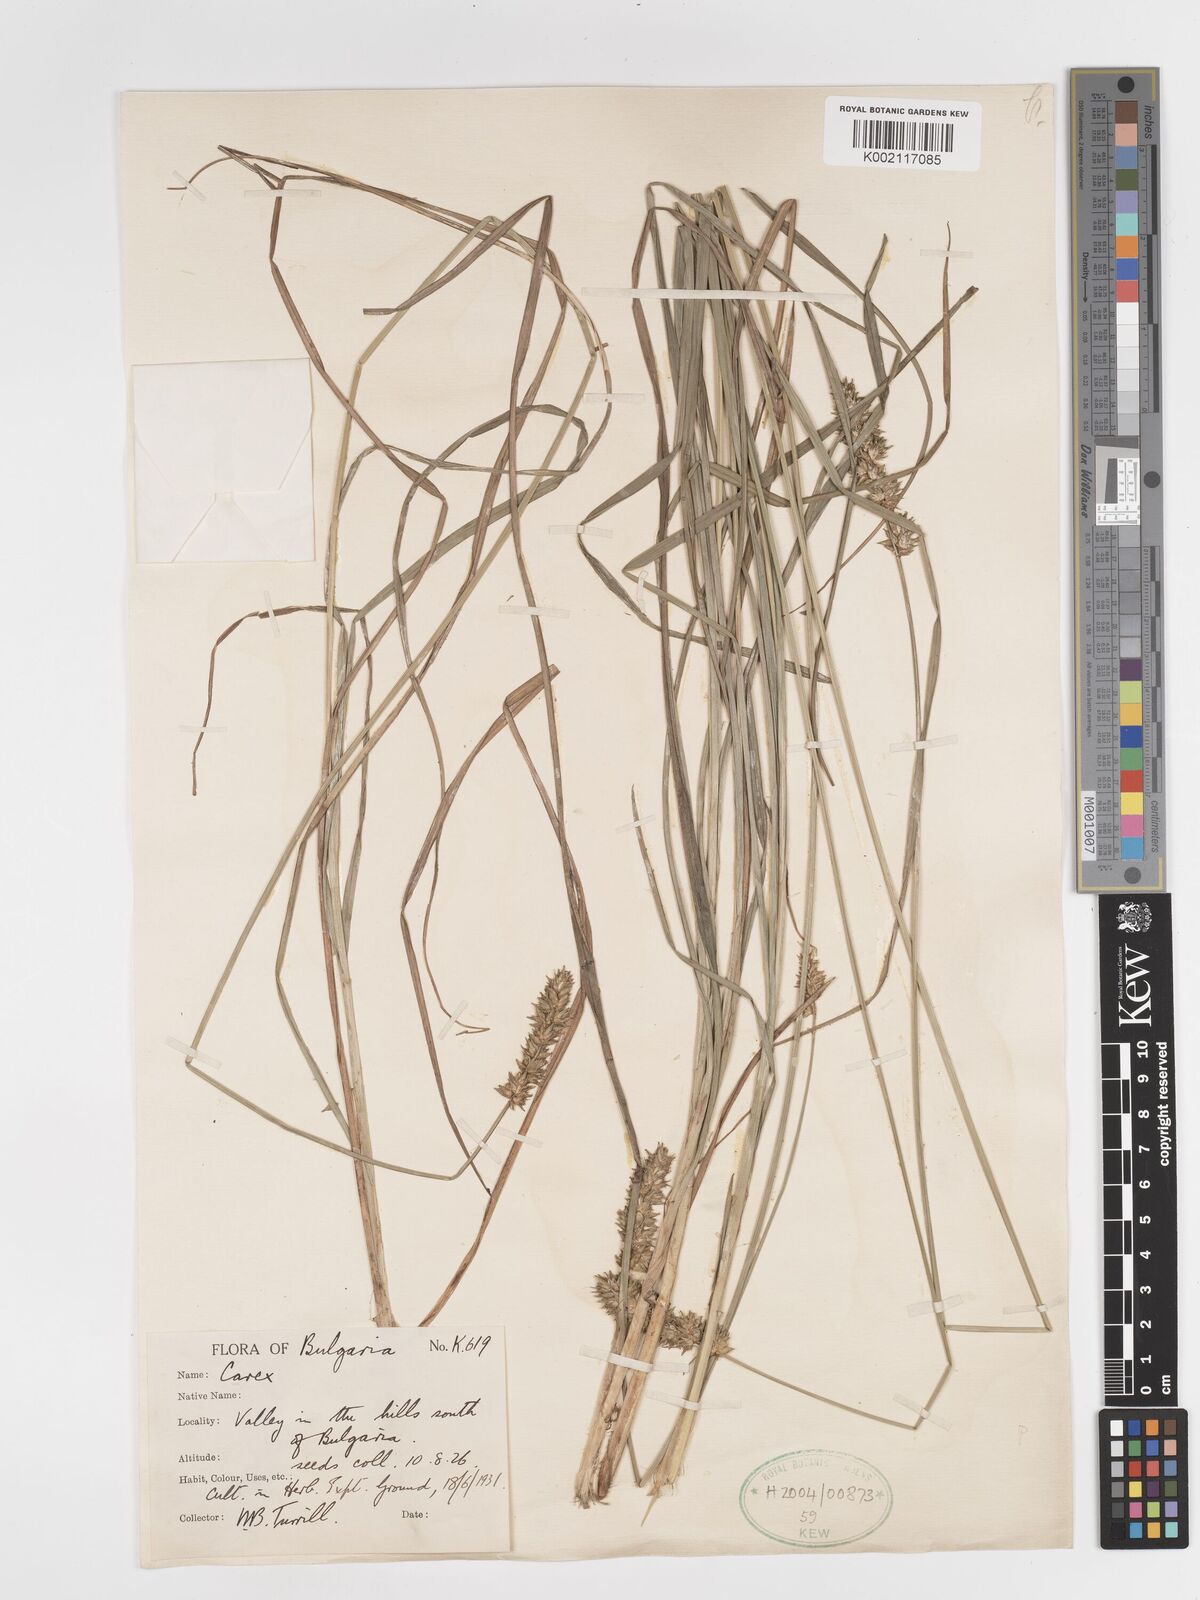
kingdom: Plantae
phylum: Tracheophyta
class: Liliopsida
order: Poales
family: Cyperaceae
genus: Carex
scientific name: Carex leersii
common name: Leers' sedge
